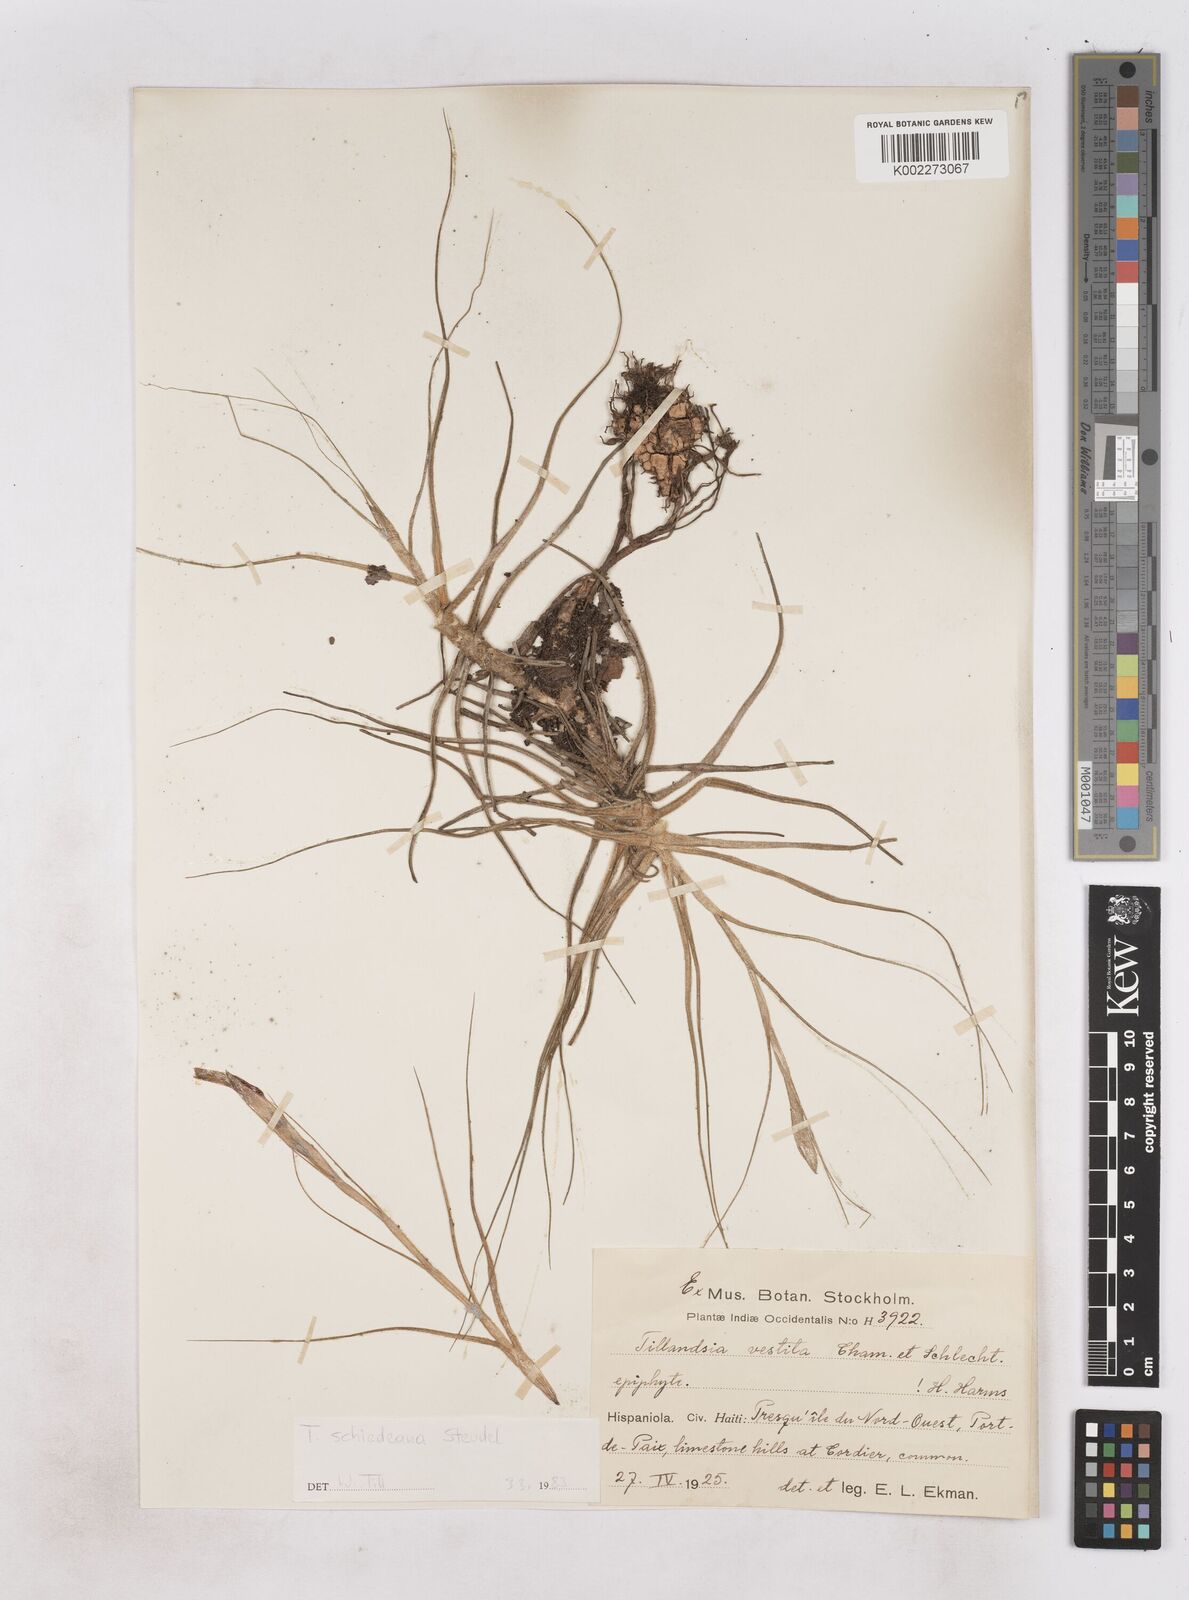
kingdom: Plantae
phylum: Tracheophyta
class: Liliopsida
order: Poales
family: Bromeliaceae
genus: Tillandsia
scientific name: Tillandsia schiedeana
